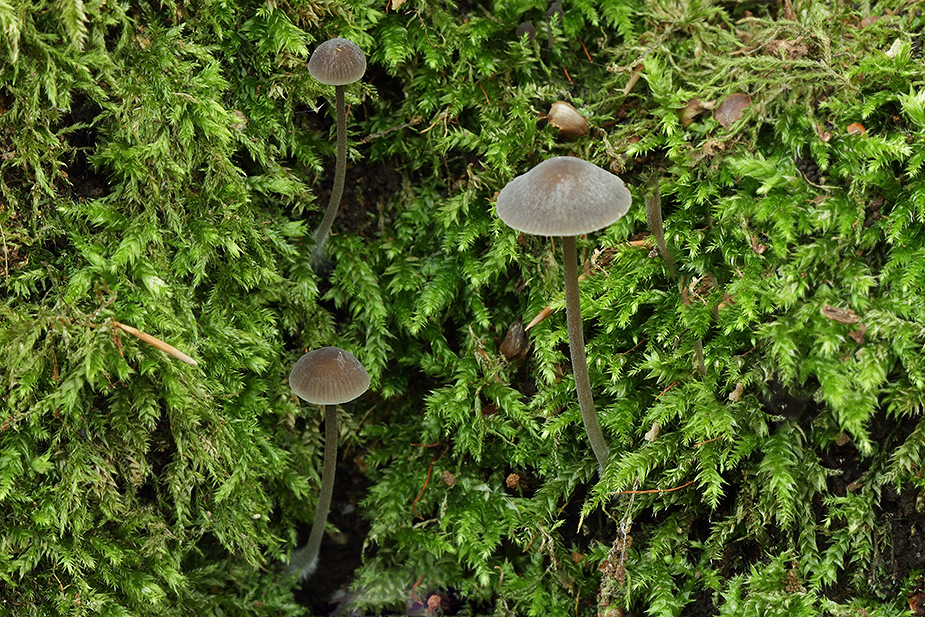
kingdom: Fungi
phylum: Basidiomycota
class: Agaricomycetes
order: Agaricales
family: Mycenaceae
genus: Mycena
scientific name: Mycena erubescens
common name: galde-huesvamp
